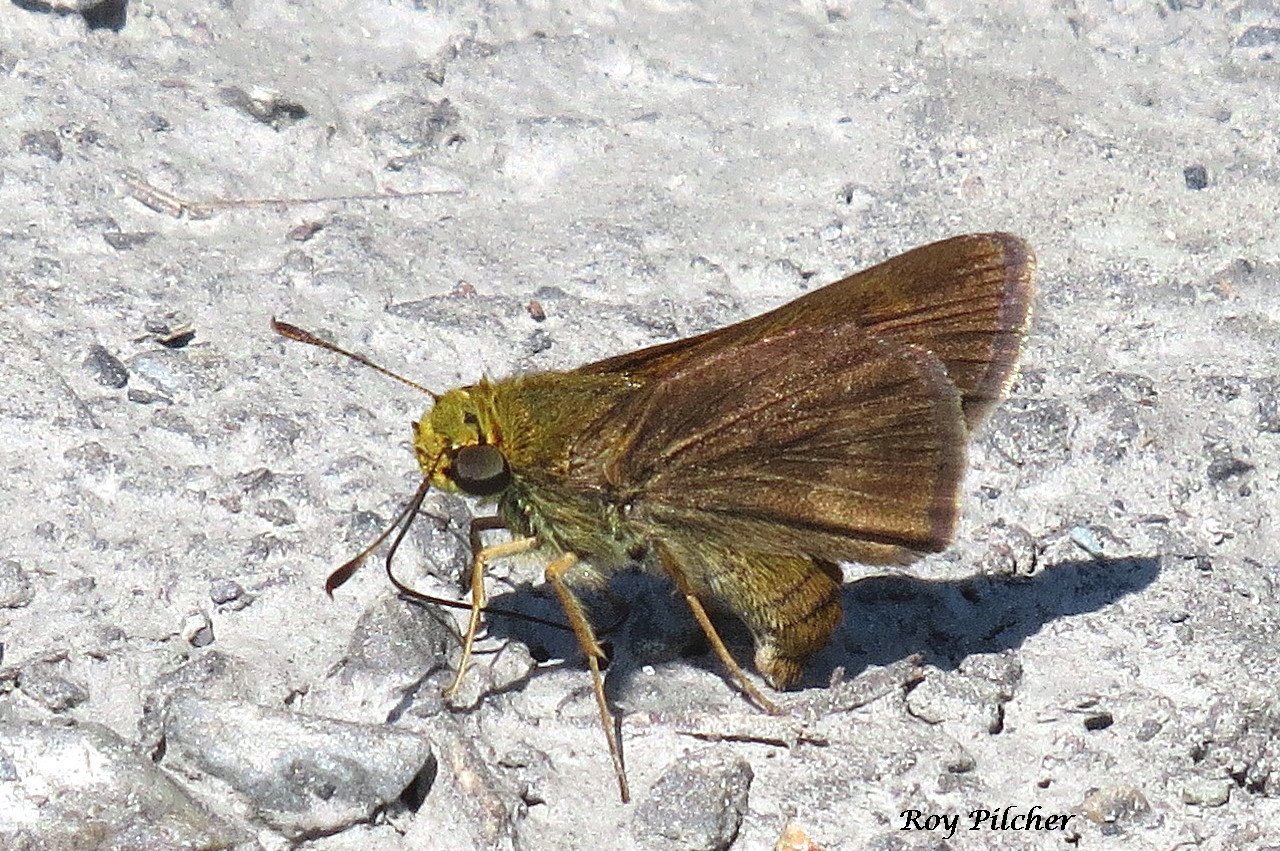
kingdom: Animalia
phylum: Arthropoda
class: Insecta
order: Lepidoptera
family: Hesperiidae
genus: Euphyes
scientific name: Euphyes vestris
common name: Dun Skipper
